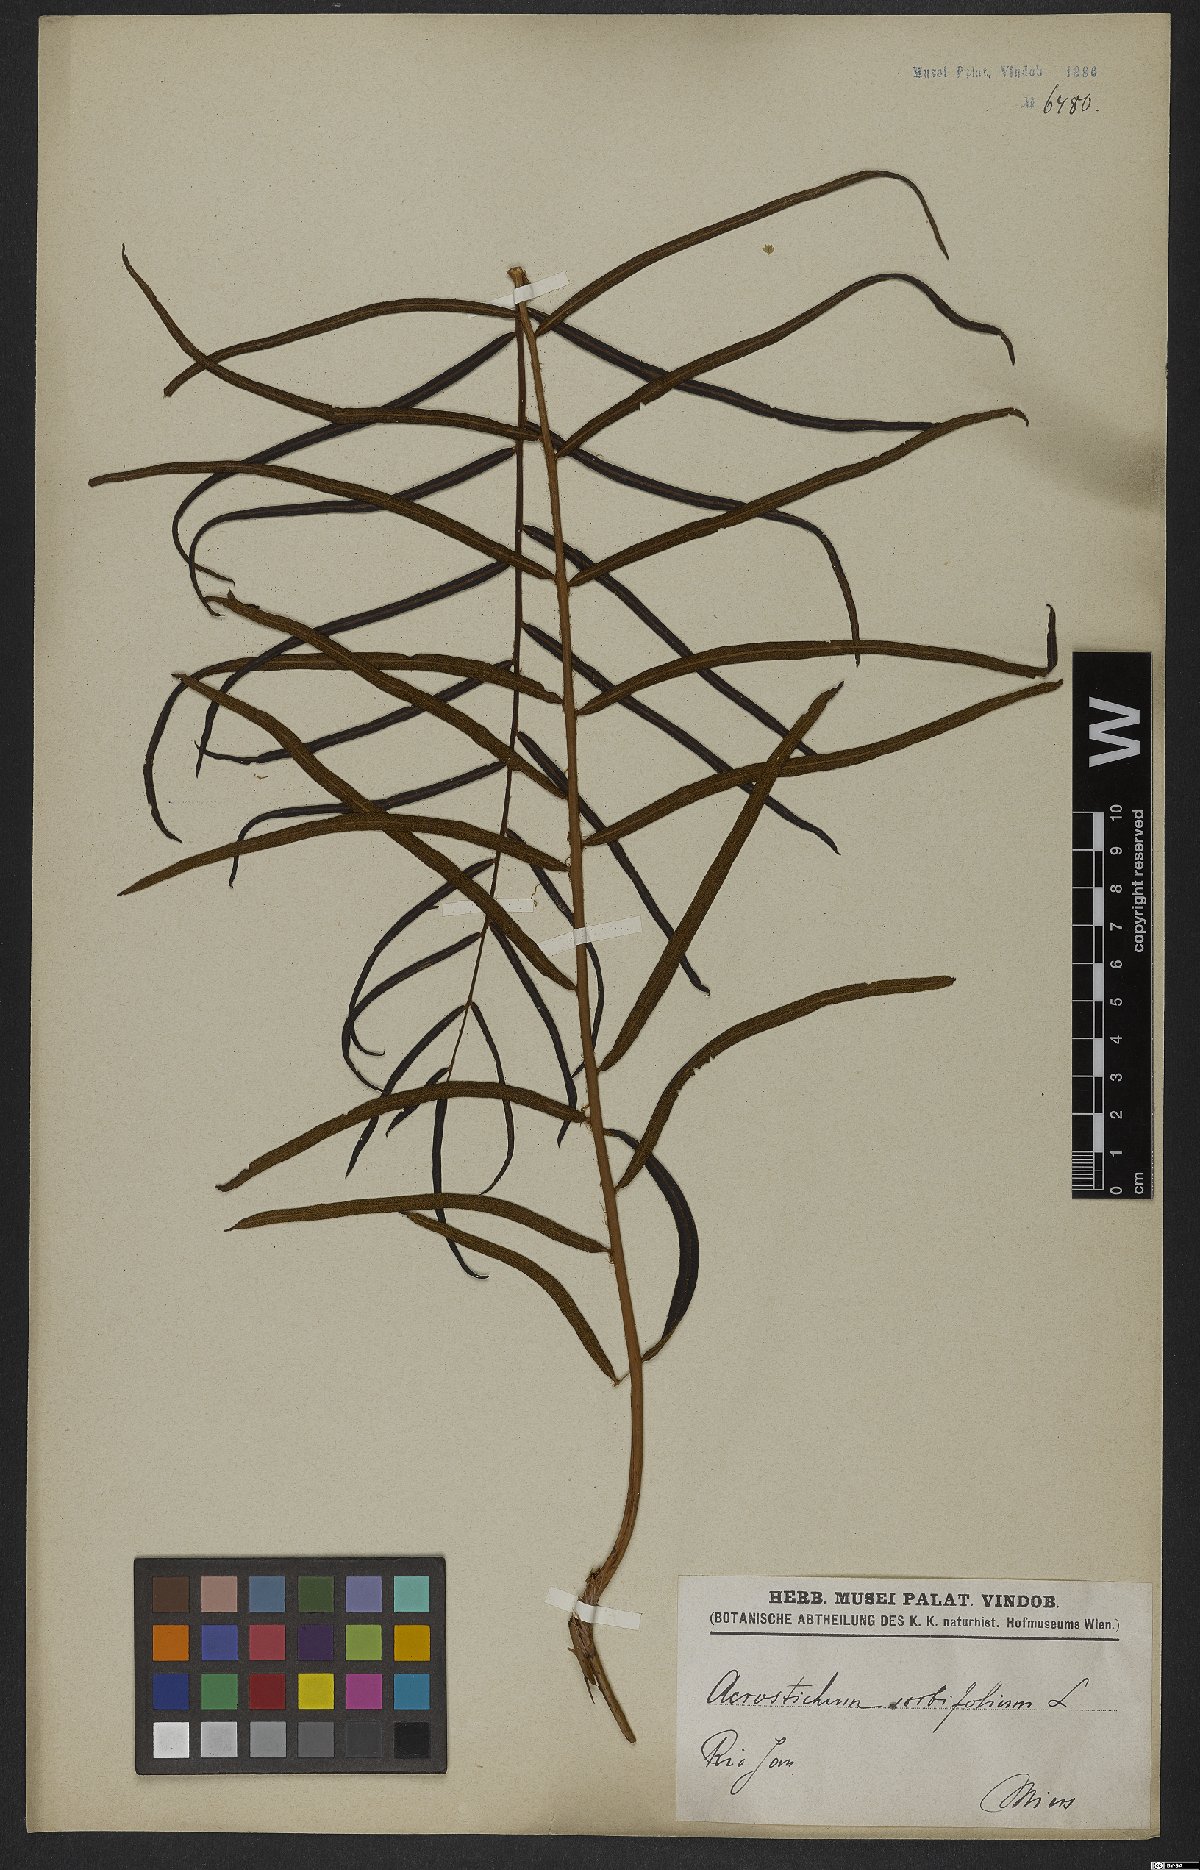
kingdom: Plantae
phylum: Tracheophyta
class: Polypodiopsida
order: Polypodiales
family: Blechnaceae
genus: Stenochlaena
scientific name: Stenochlaena
